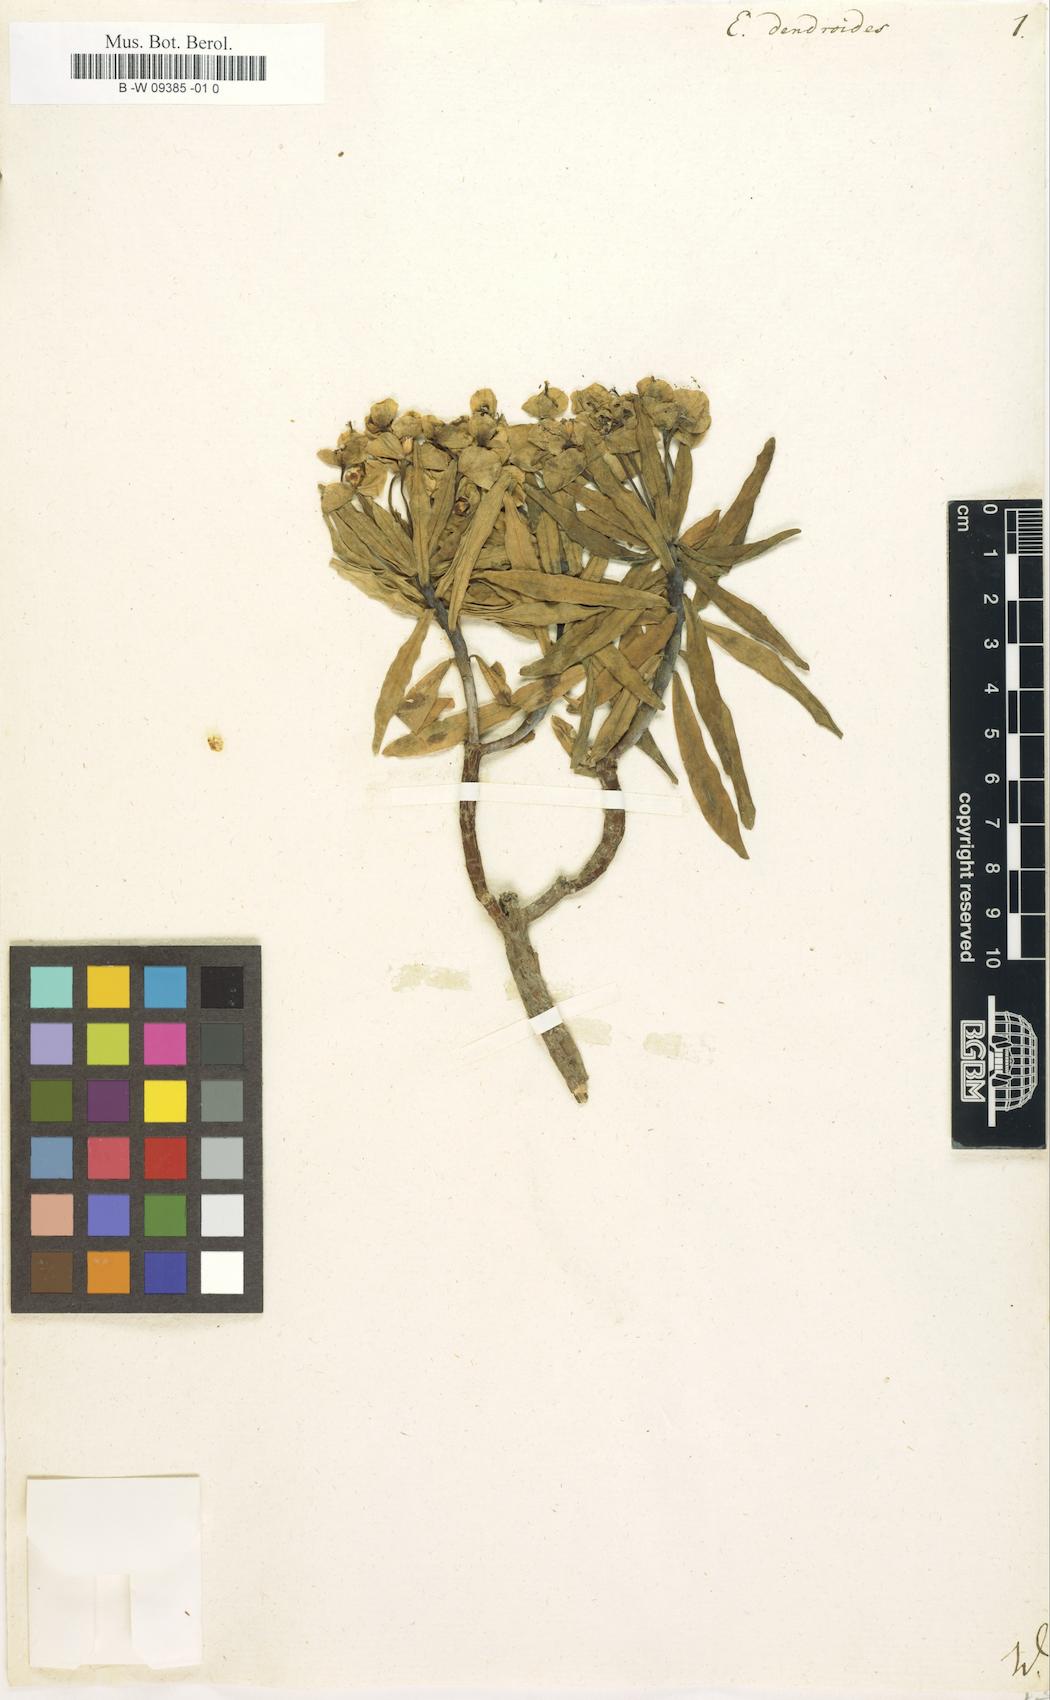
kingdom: Plantae
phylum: Tracheophyta
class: Magnoliopsida
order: Malpighiales
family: Euphorbiaceae
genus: Euphorbia
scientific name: Euphorbia dendroides
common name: Tree spurge
